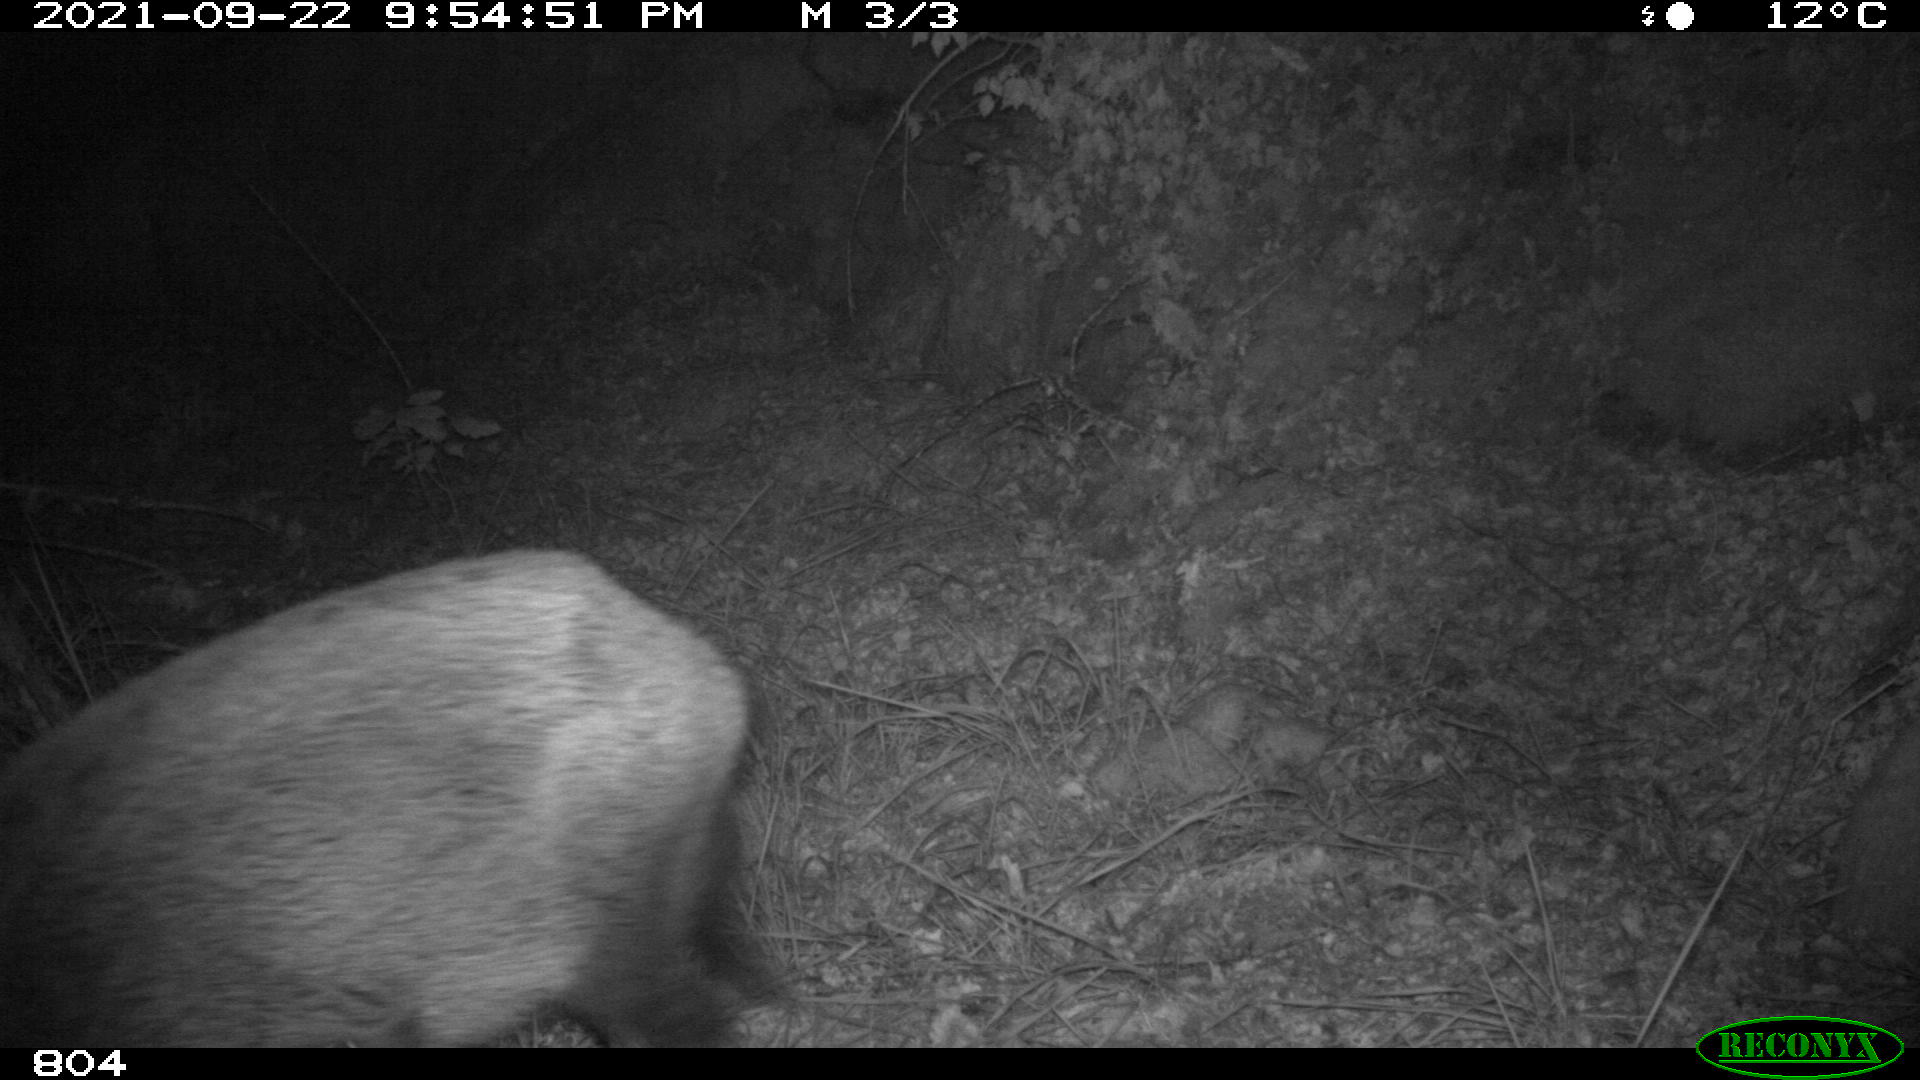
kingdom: Animalia
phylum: Chordata
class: Mammalia
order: Artiodactyla
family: Suidae
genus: Sus
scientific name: Sus scrofa
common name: Wild boar
